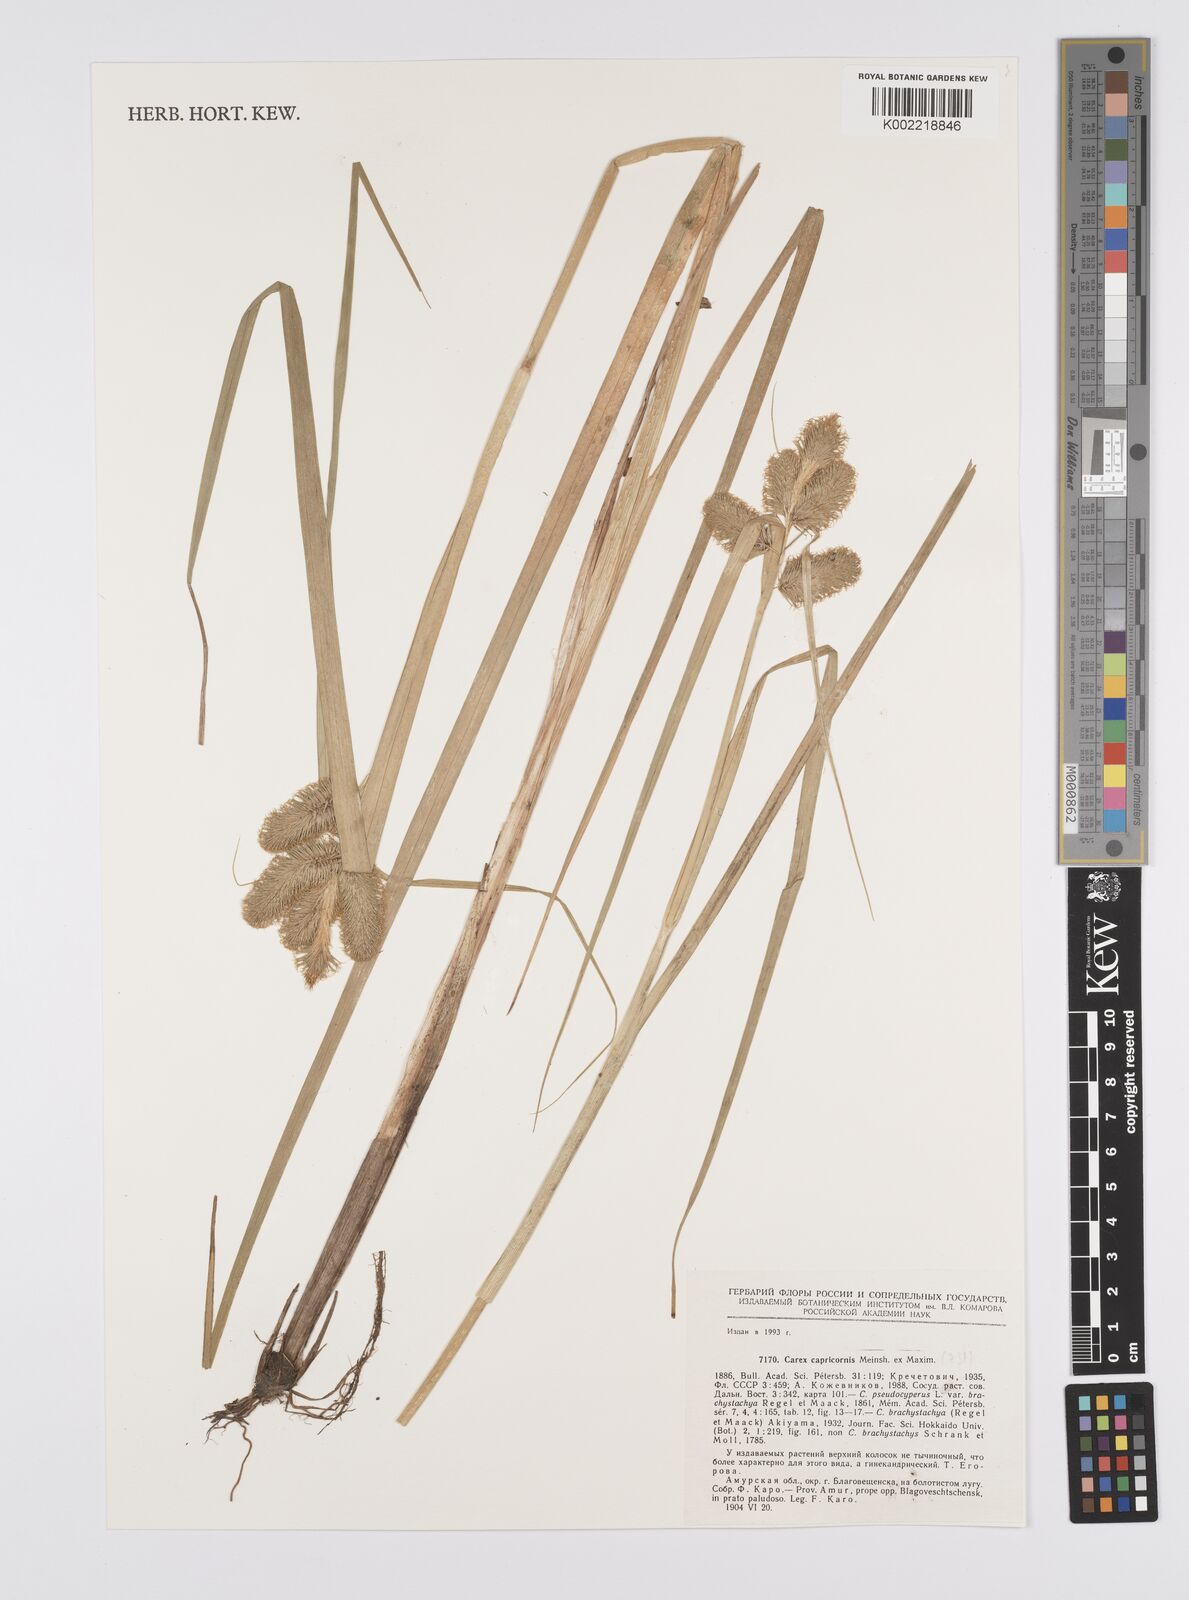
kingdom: Plantae
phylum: Tracheophyta
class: Liliopsida
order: Poales
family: Cyperaceae
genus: Carex
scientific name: Carex capricornis
